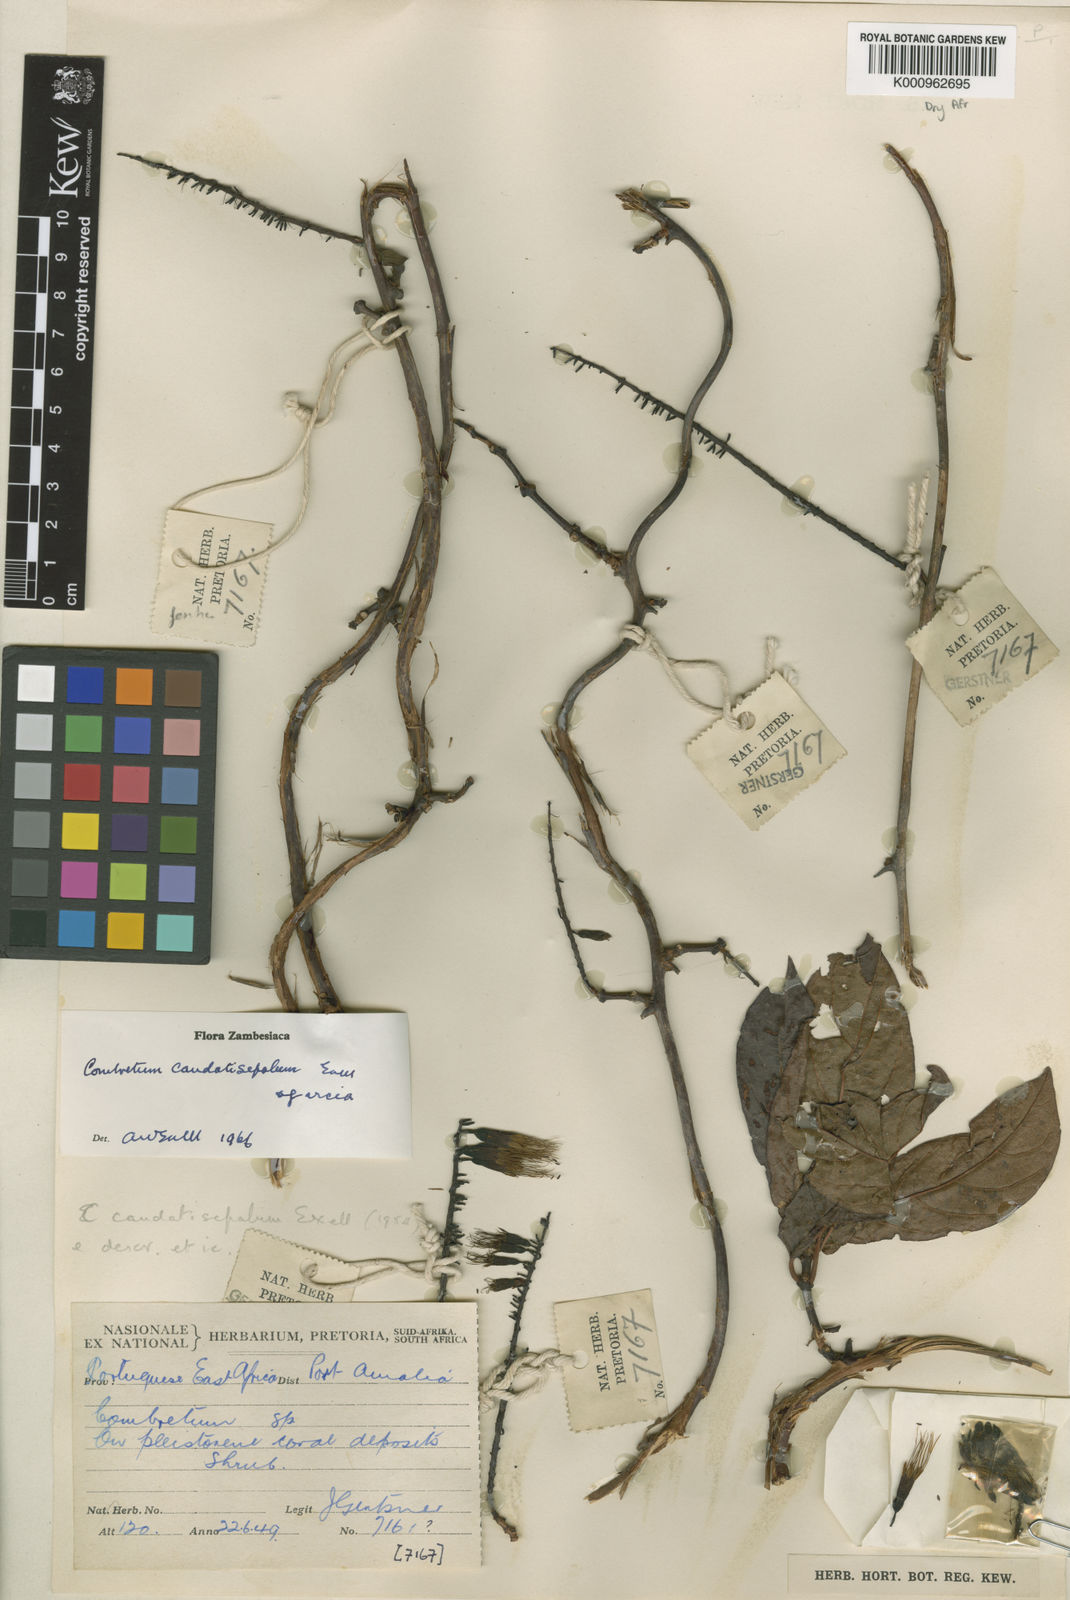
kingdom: Plantae
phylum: Tracheophyta
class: Magnoliopsida
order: Myrtales
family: Combretaceae
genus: Combretum
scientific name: Combretum caudatisepalum
